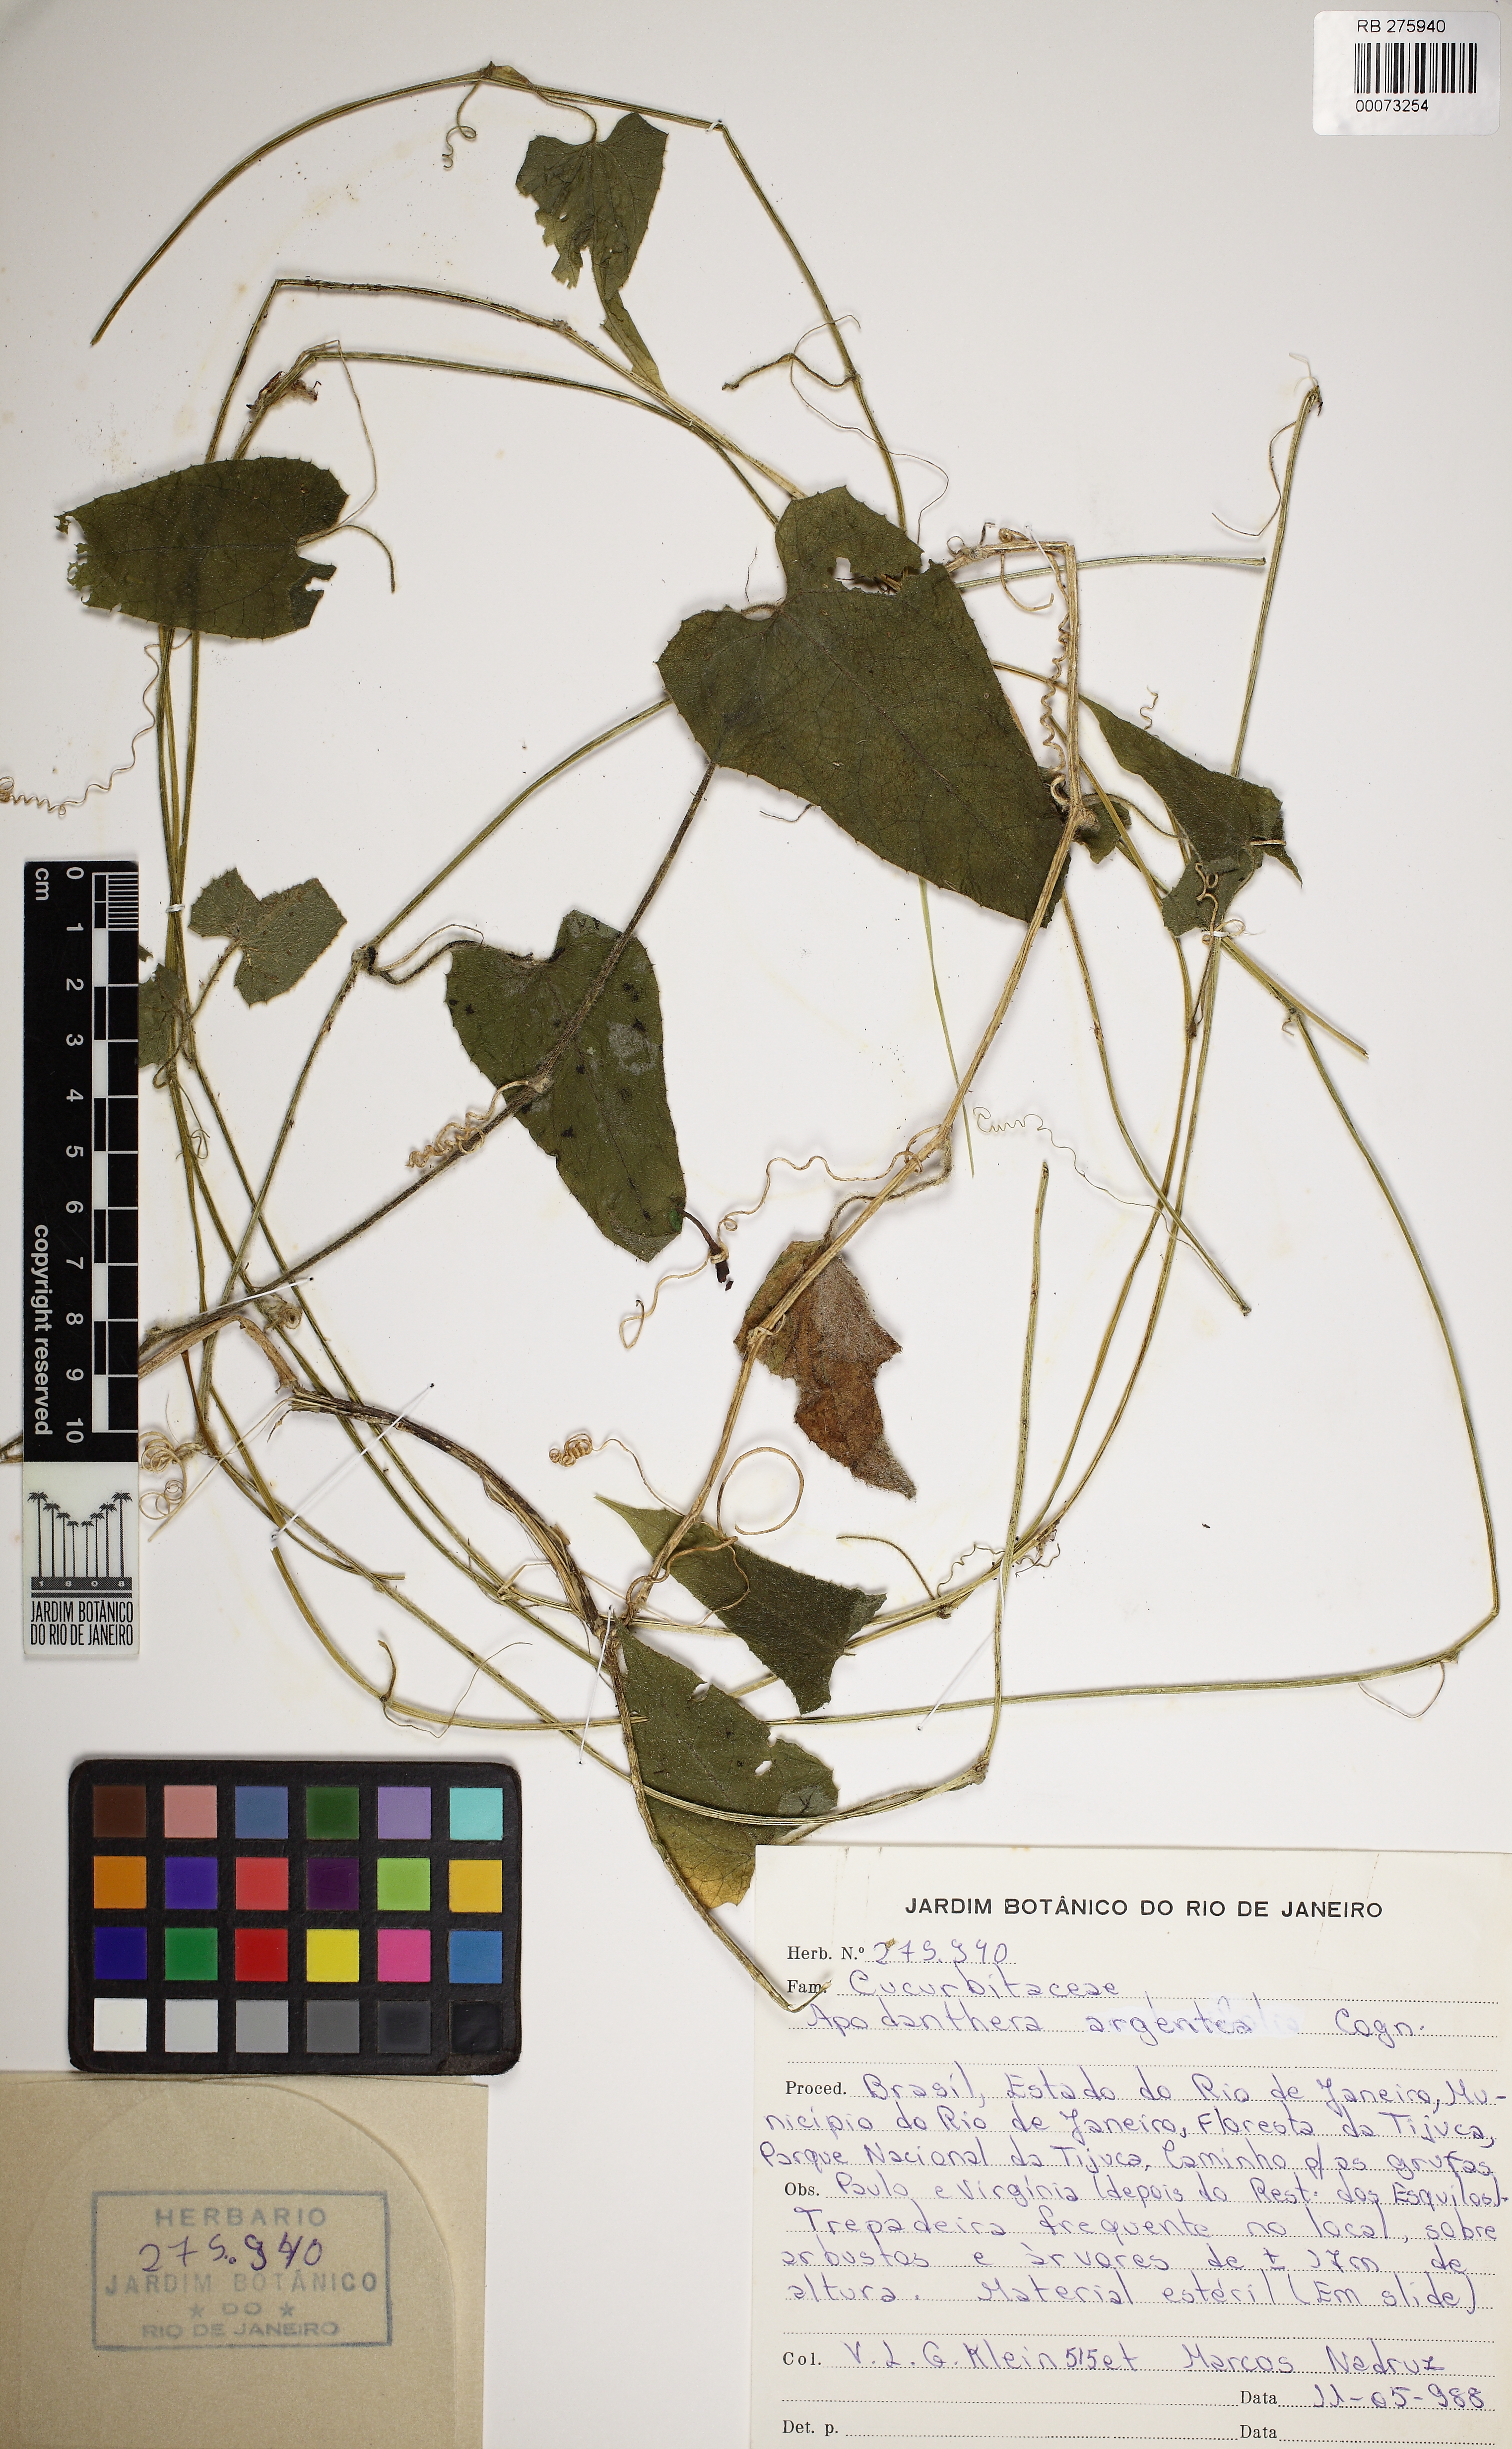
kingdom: Plantae
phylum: Tracheophyta
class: Magnoliopsida
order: Cucurbitales
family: Cucurbitaceae
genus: Apodanthera
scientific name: Apodanthera argentea
